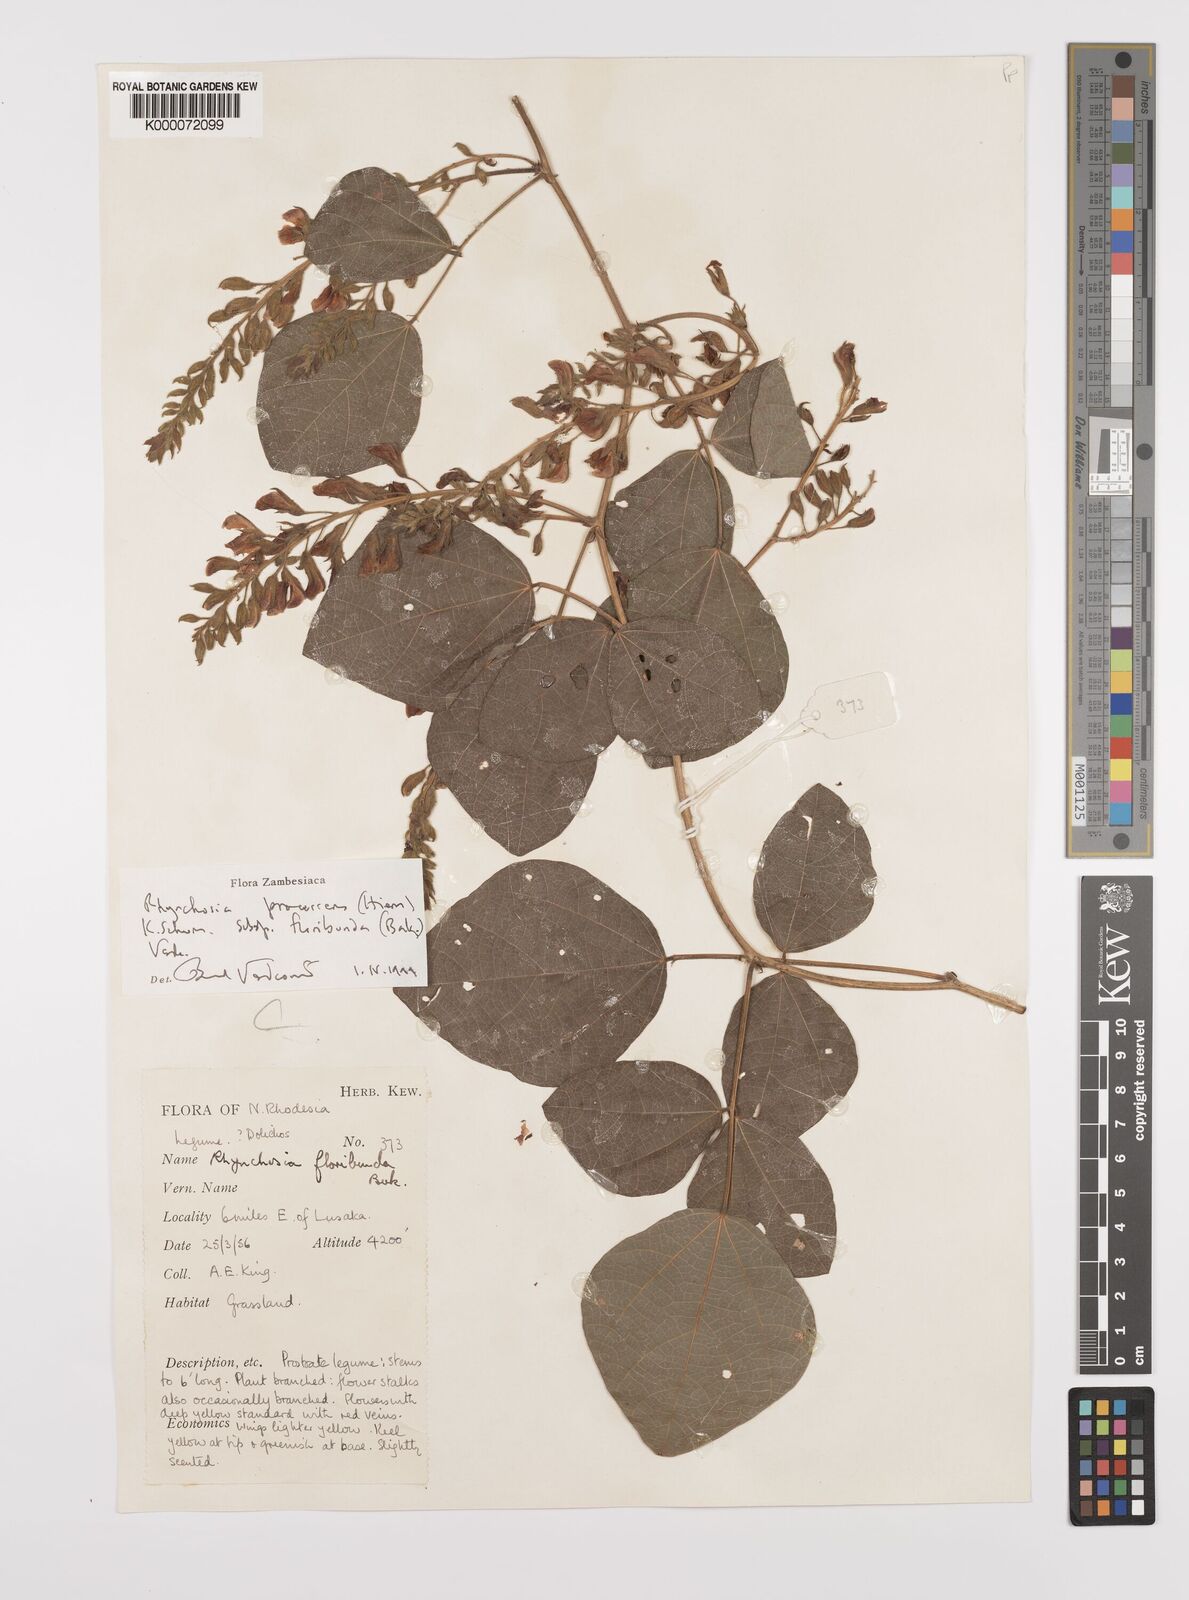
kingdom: Plantae
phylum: Tracheophyta
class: Magnoliopsida
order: Fabales
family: Fabaceae
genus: Rhynchosia
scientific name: Rhynchosia procurrens
